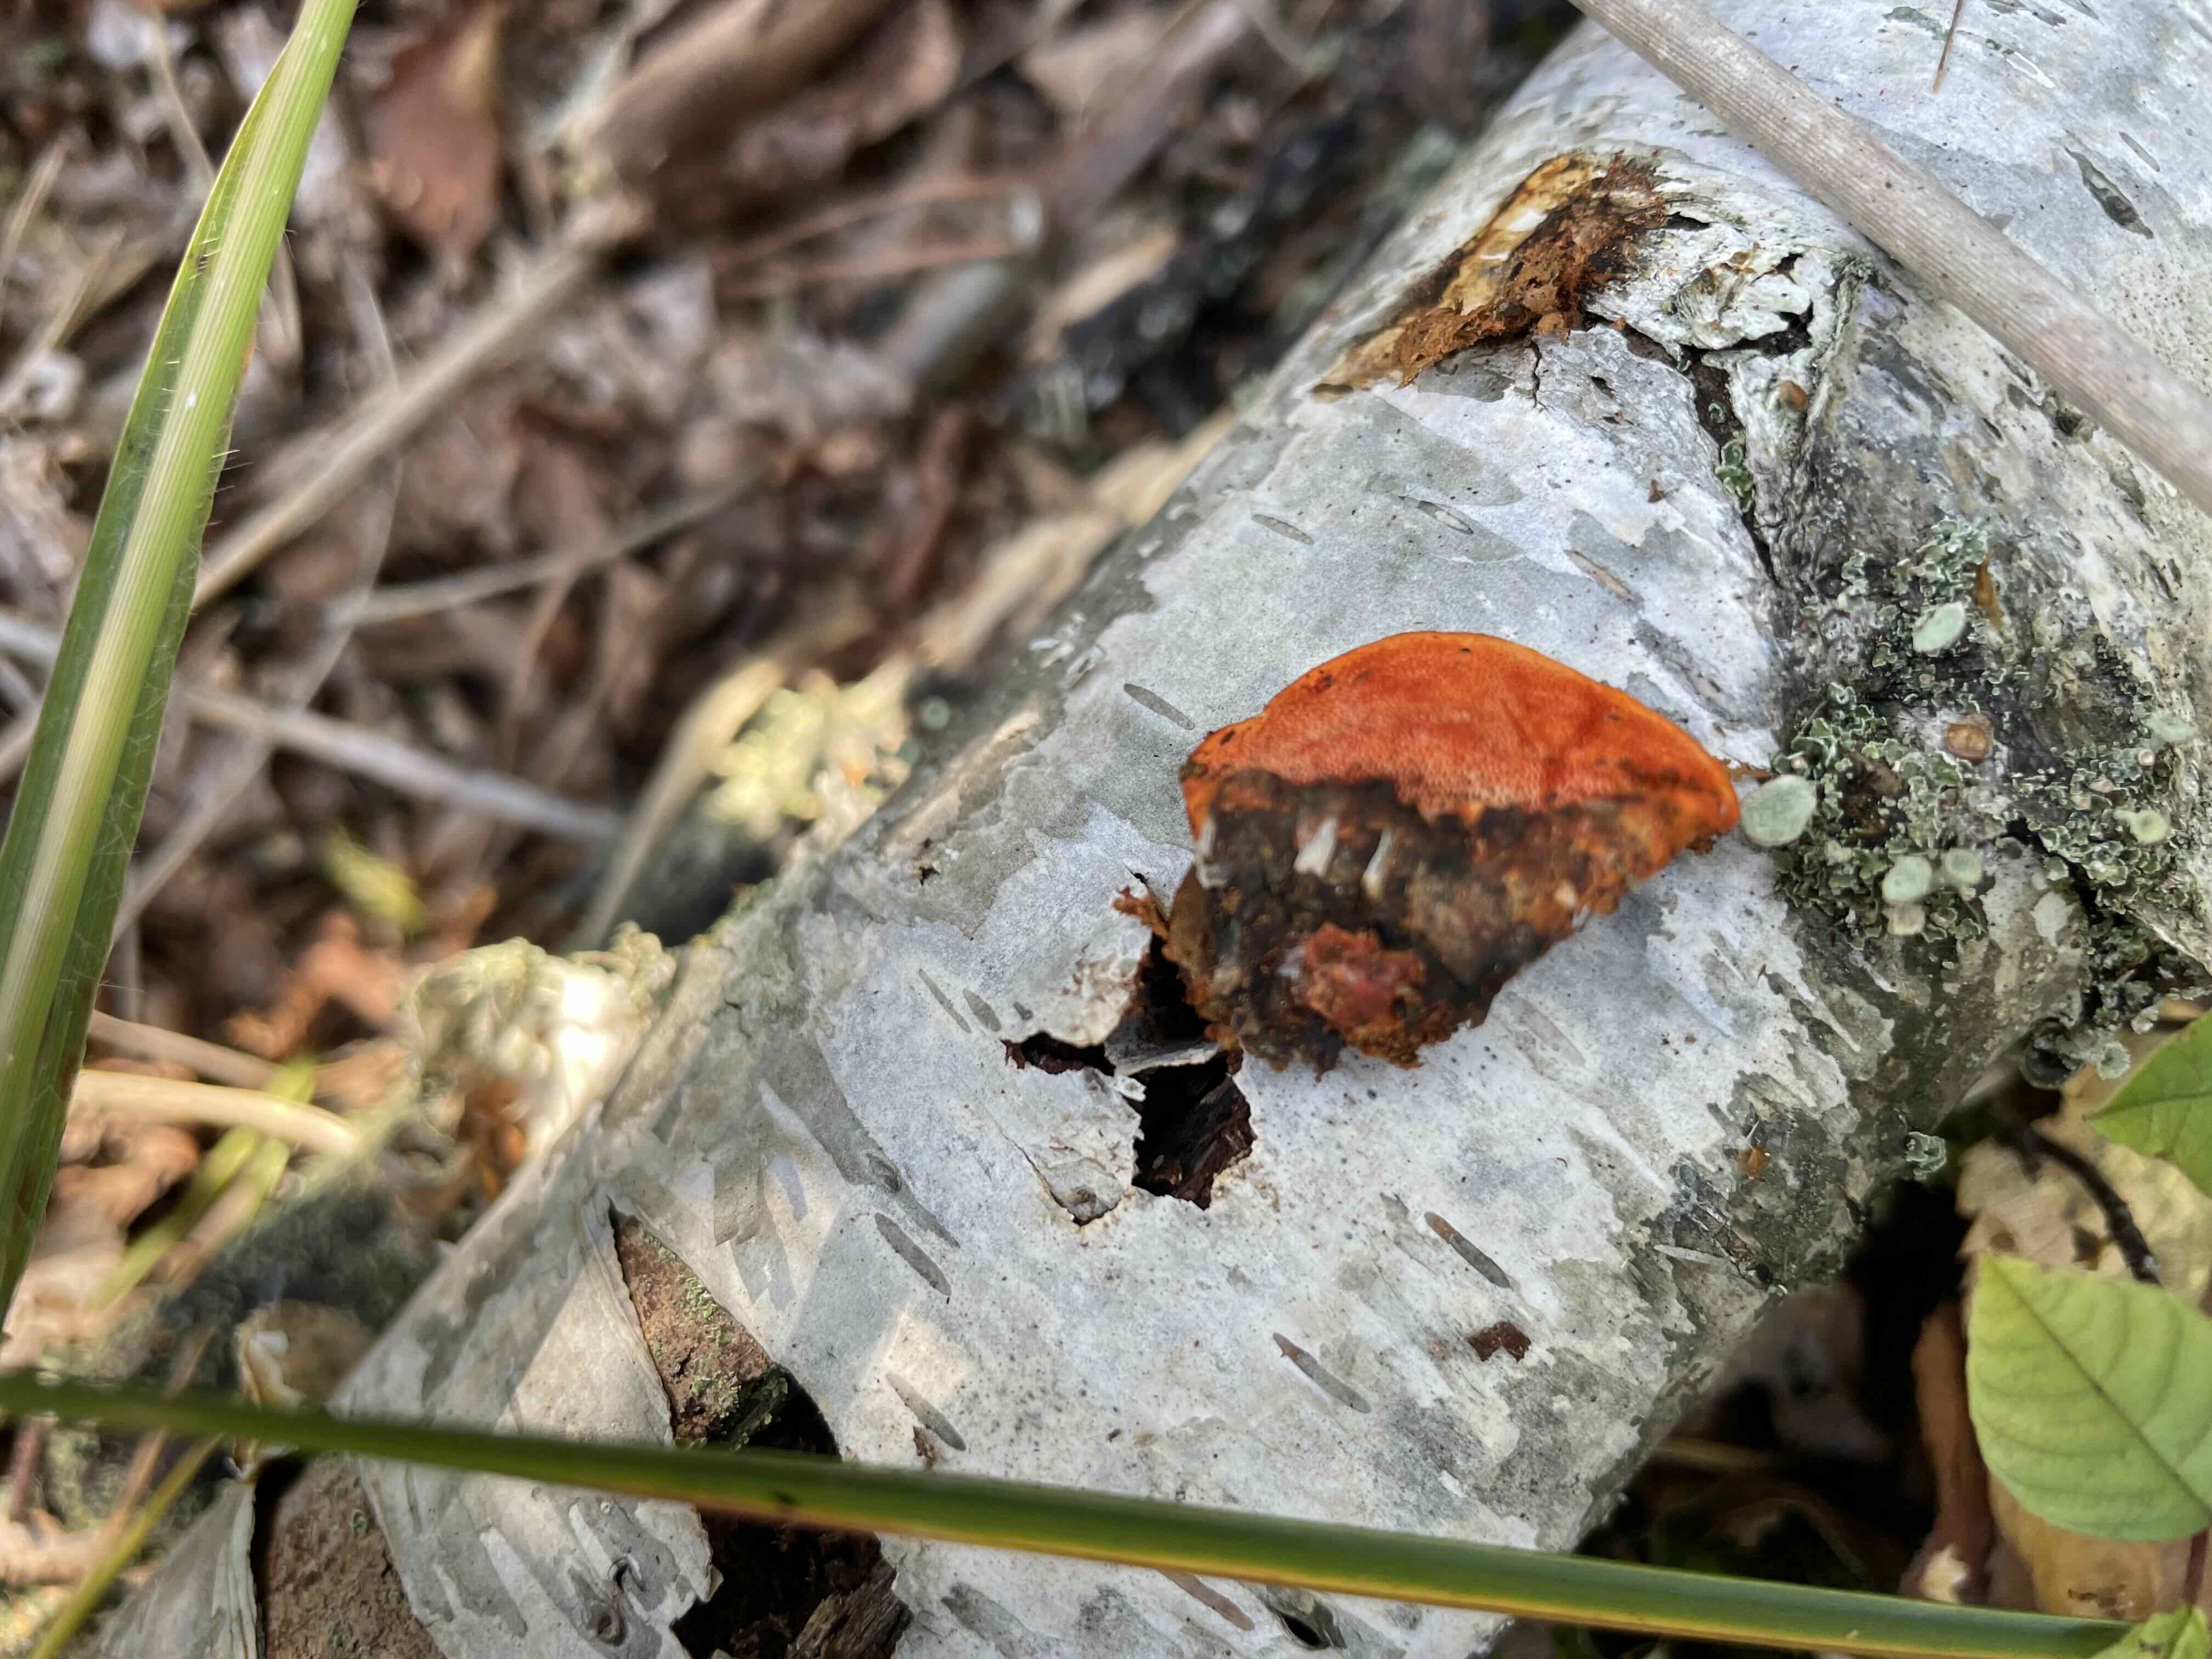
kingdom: Fungi
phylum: Basidiomycota
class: Agaricomycetes
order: Polyporales
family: Polyporaceae
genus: Trametes
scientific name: Trametes cinnabarina
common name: cinnoberporesvamp
